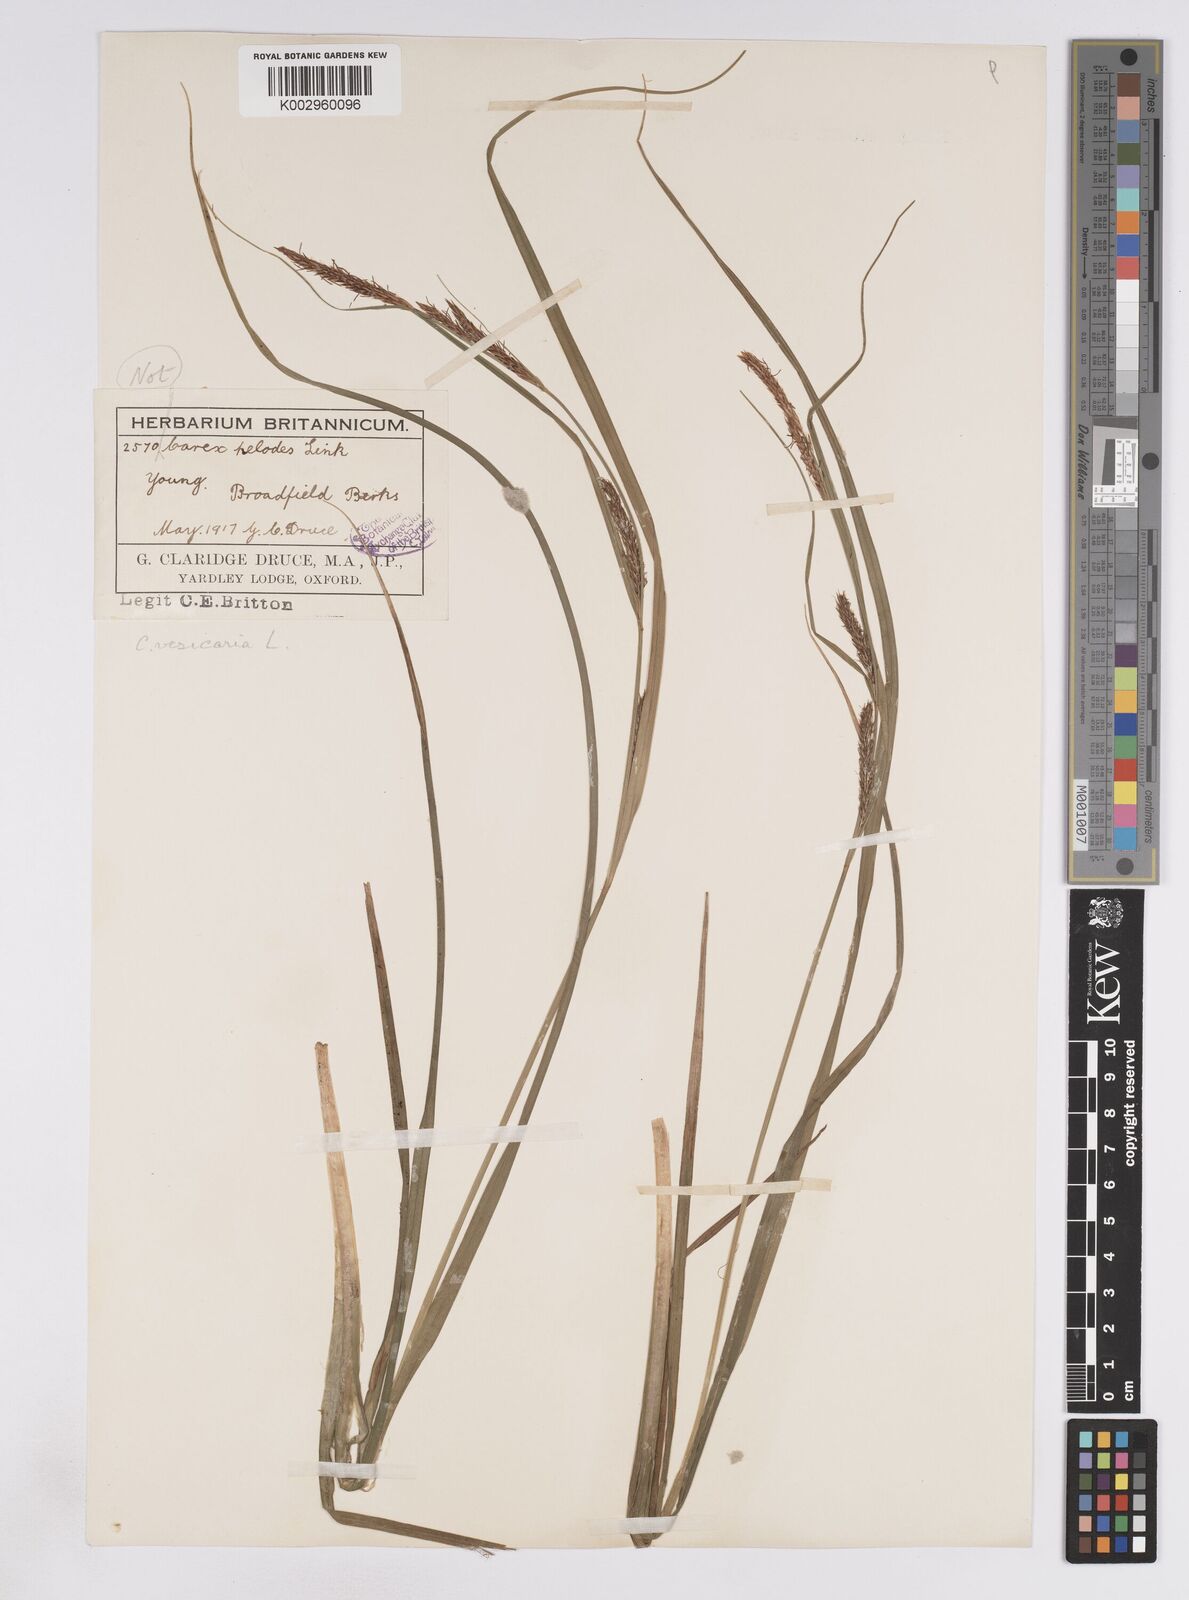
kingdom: Plantae
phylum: Tracheophyta
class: Liliopsida
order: Poales
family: Cyperaceae
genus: Carex
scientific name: Carex vesicaria
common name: Bladder-sedge
